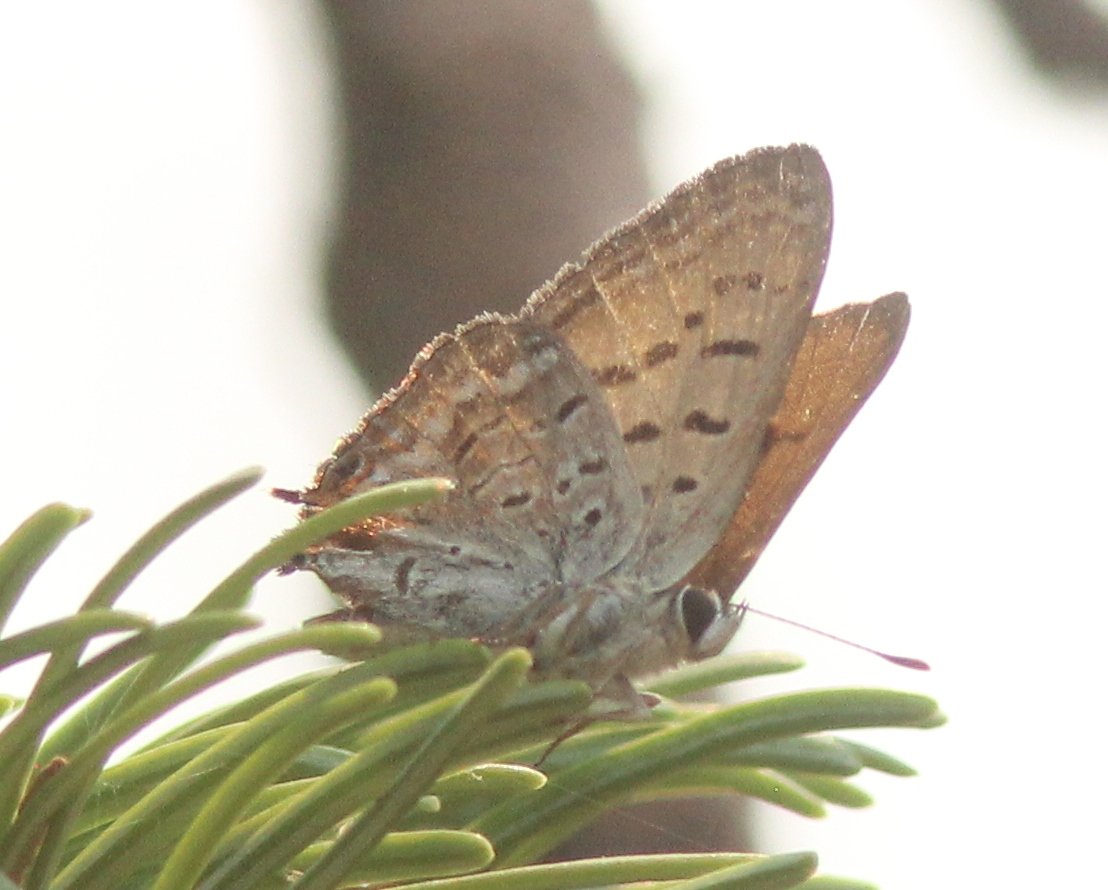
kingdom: Animalia
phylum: Arthropoda
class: Insecta
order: Lepidoptera
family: Sesiidae
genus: Sesia
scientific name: Sesia Lycaena arota
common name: Tailed Copper
